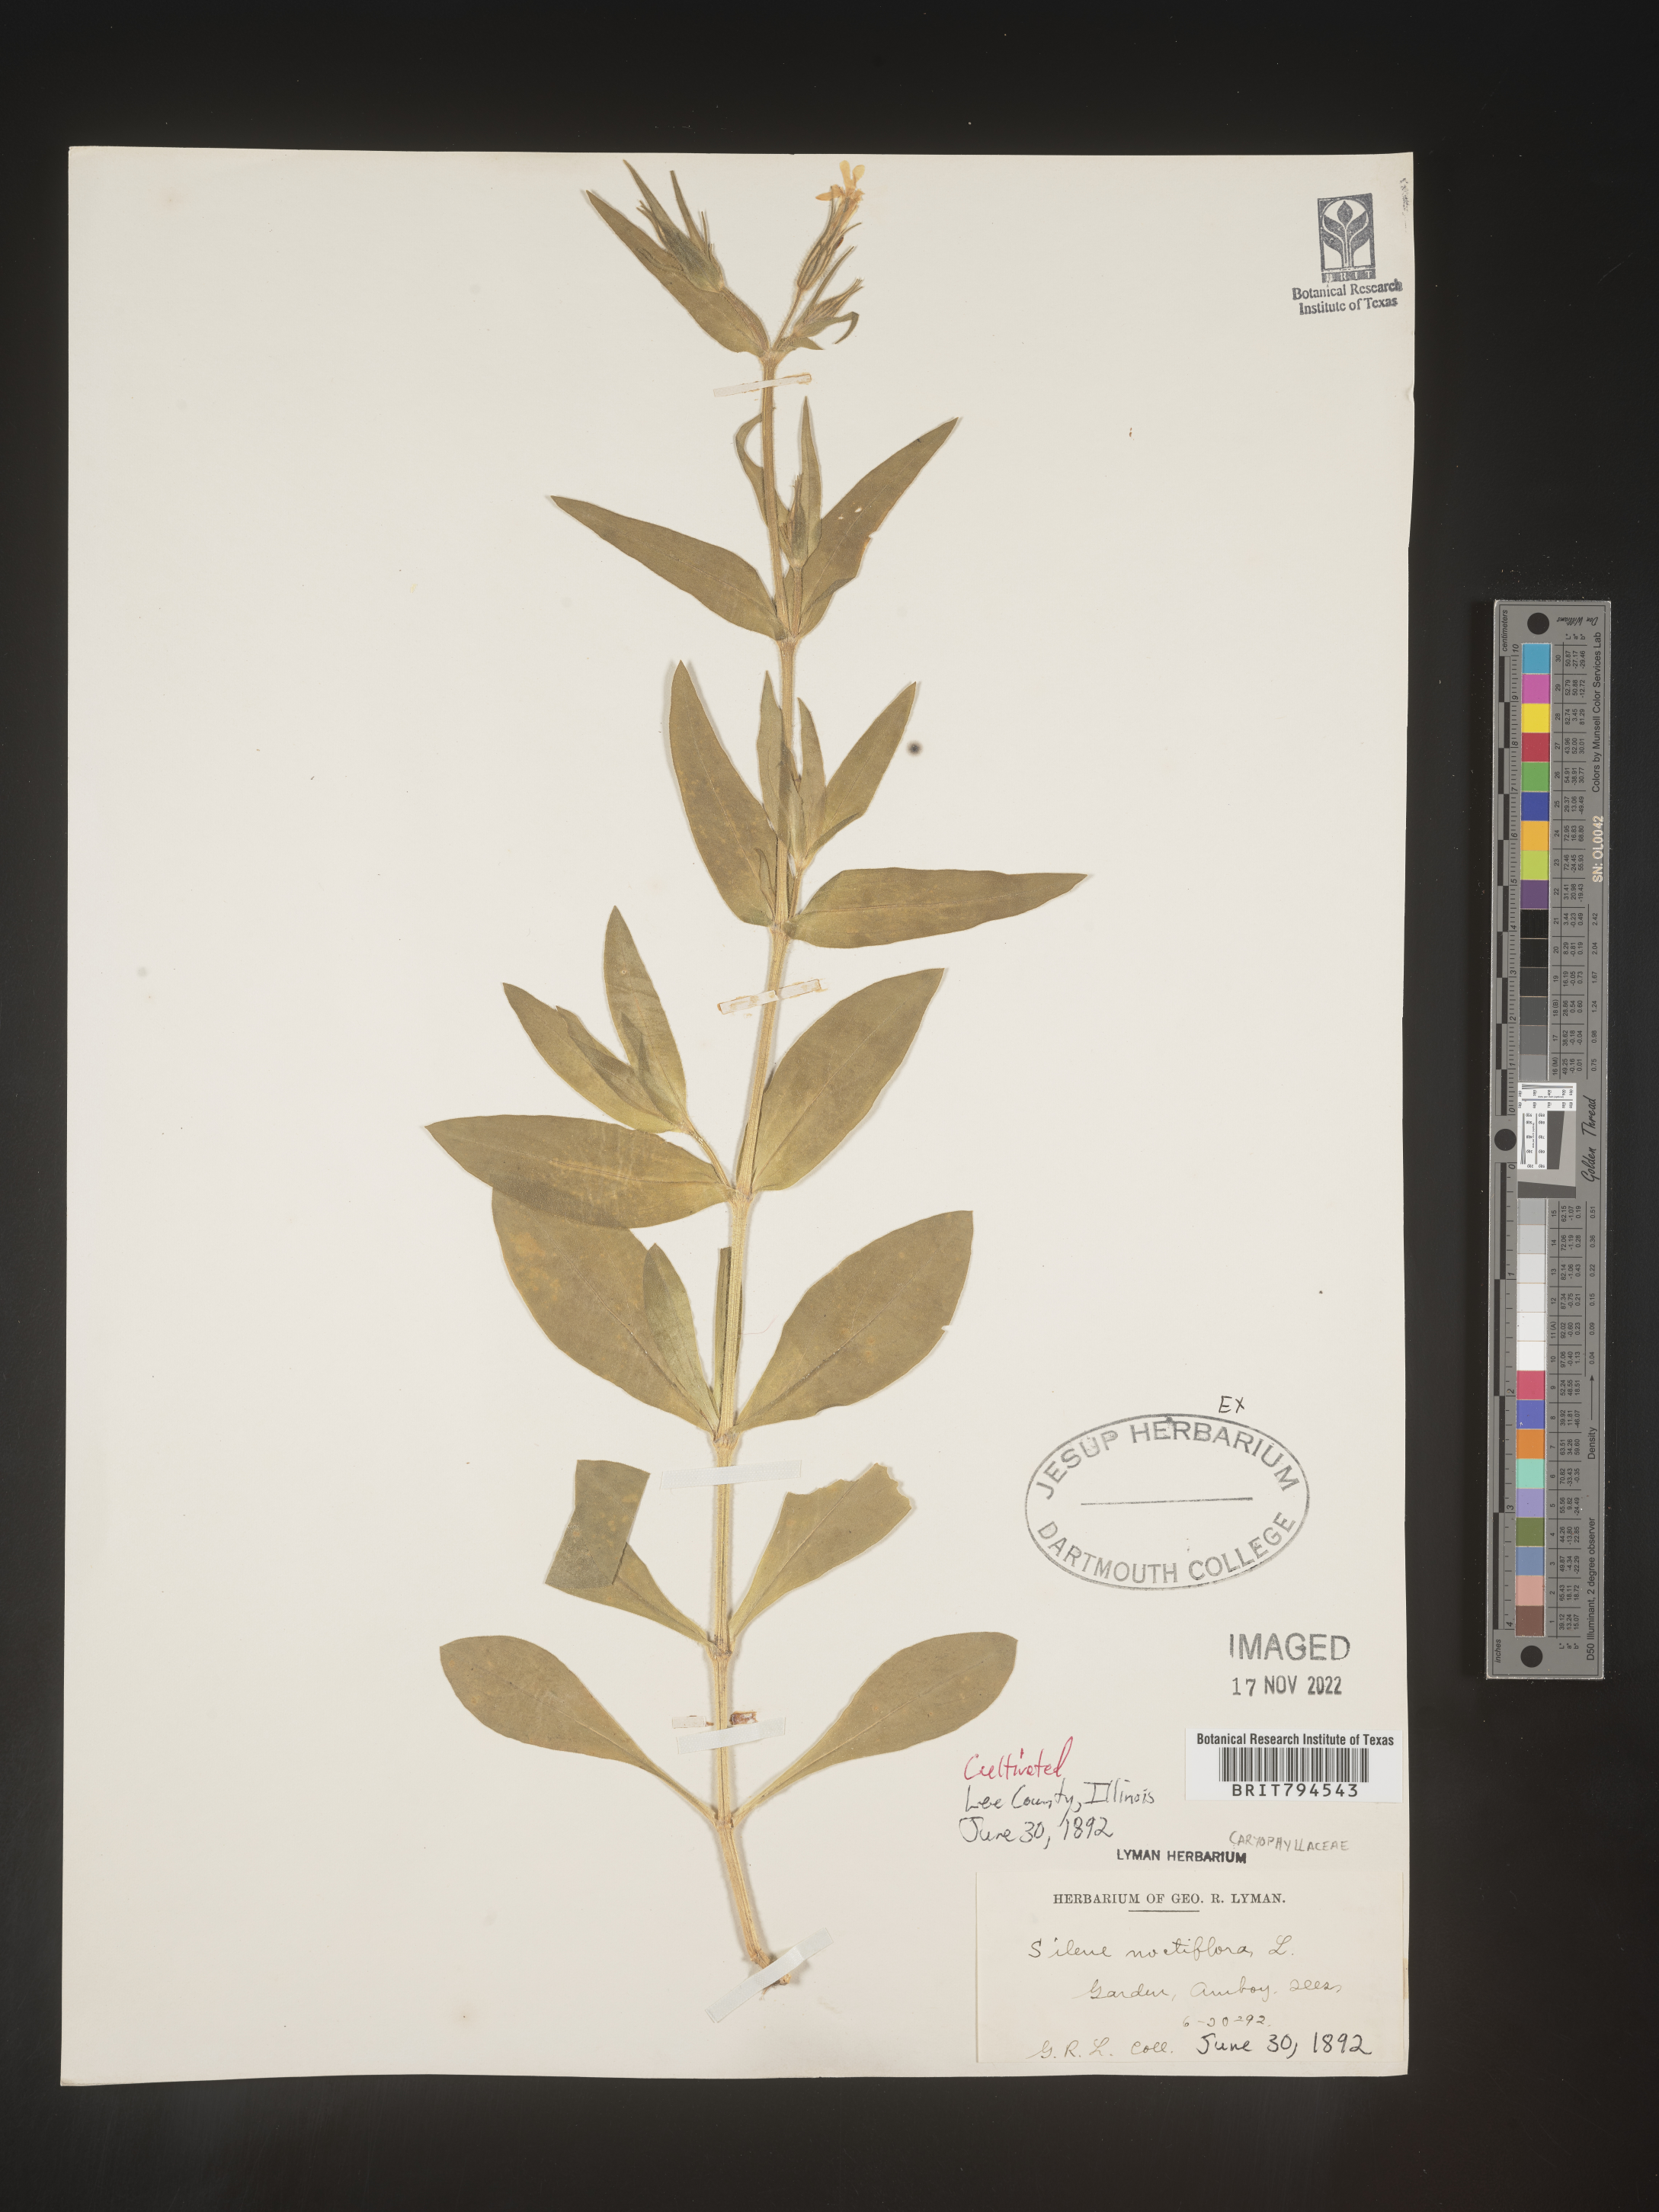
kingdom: Plantae
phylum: Tracheophyta
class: Magnoliopsida
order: Caryophyllales
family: Caryophyllaceae
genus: Silene
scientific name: Silene noctiflora
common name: Night-flowering catchfly
